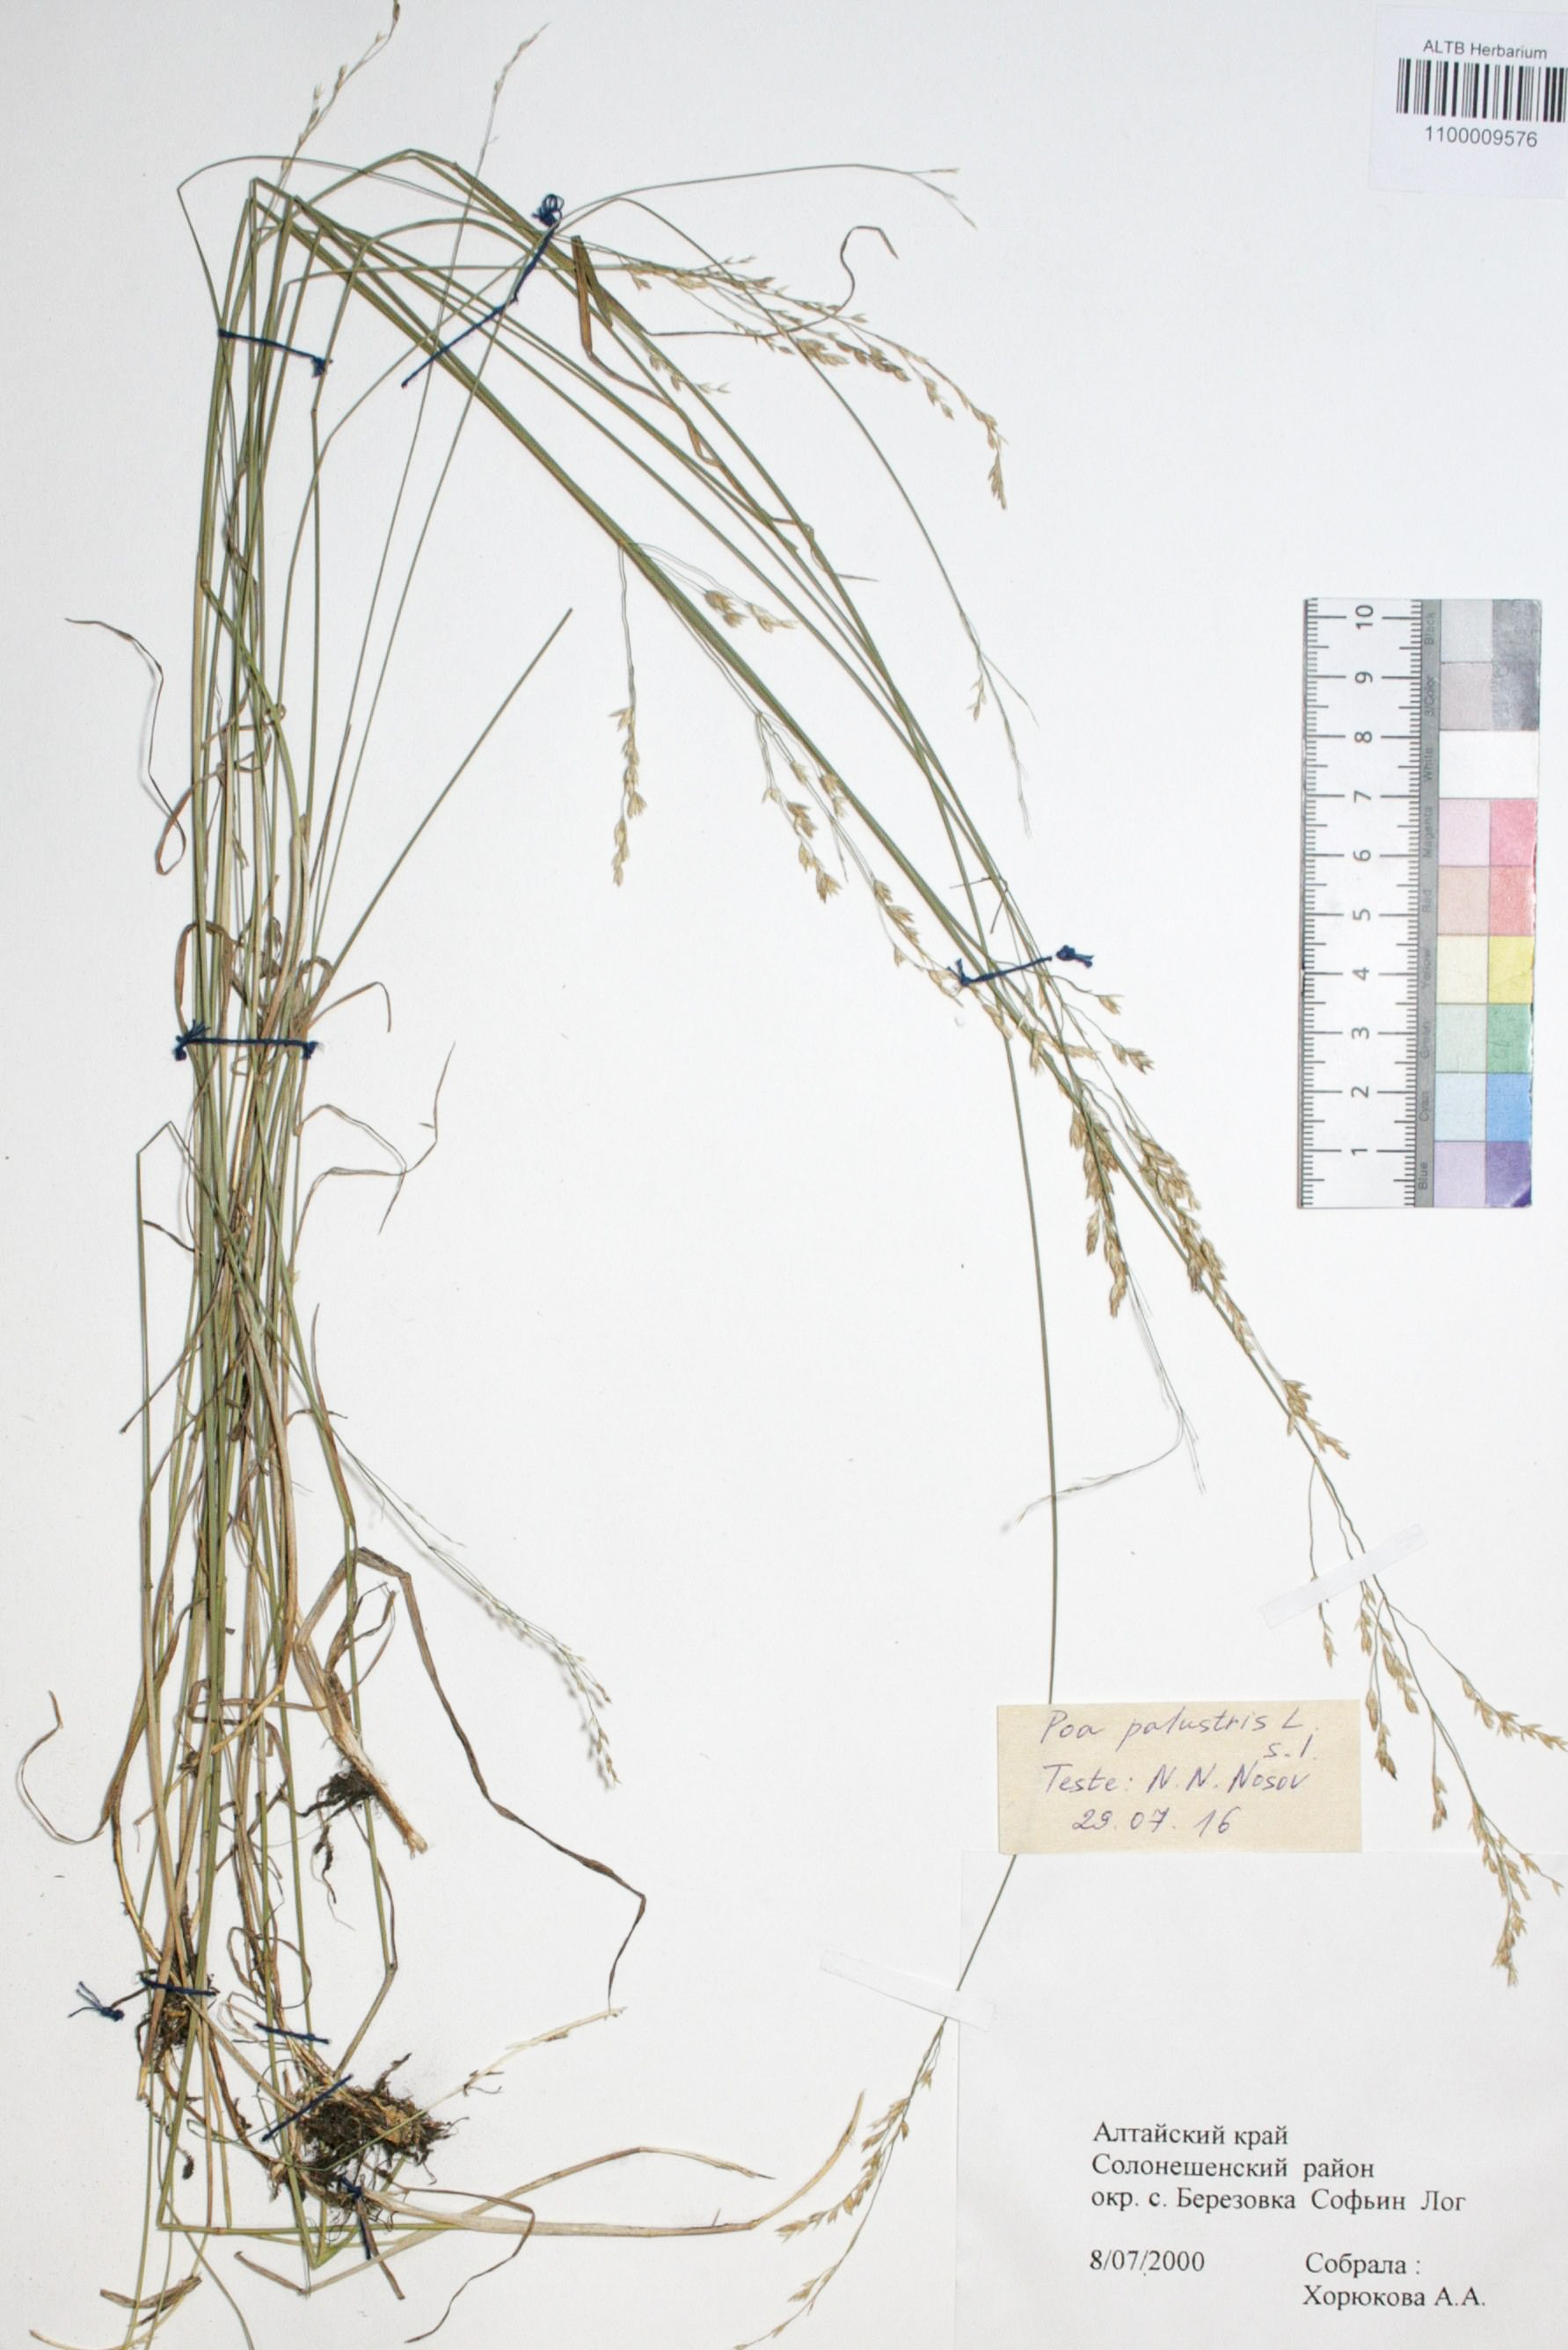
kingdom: Plantae
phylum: Tracheophyta
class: Liliopsida
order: Poales
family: Poaceae
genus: Poa
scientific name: Poa palustris
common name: Swamp meadow-grass
